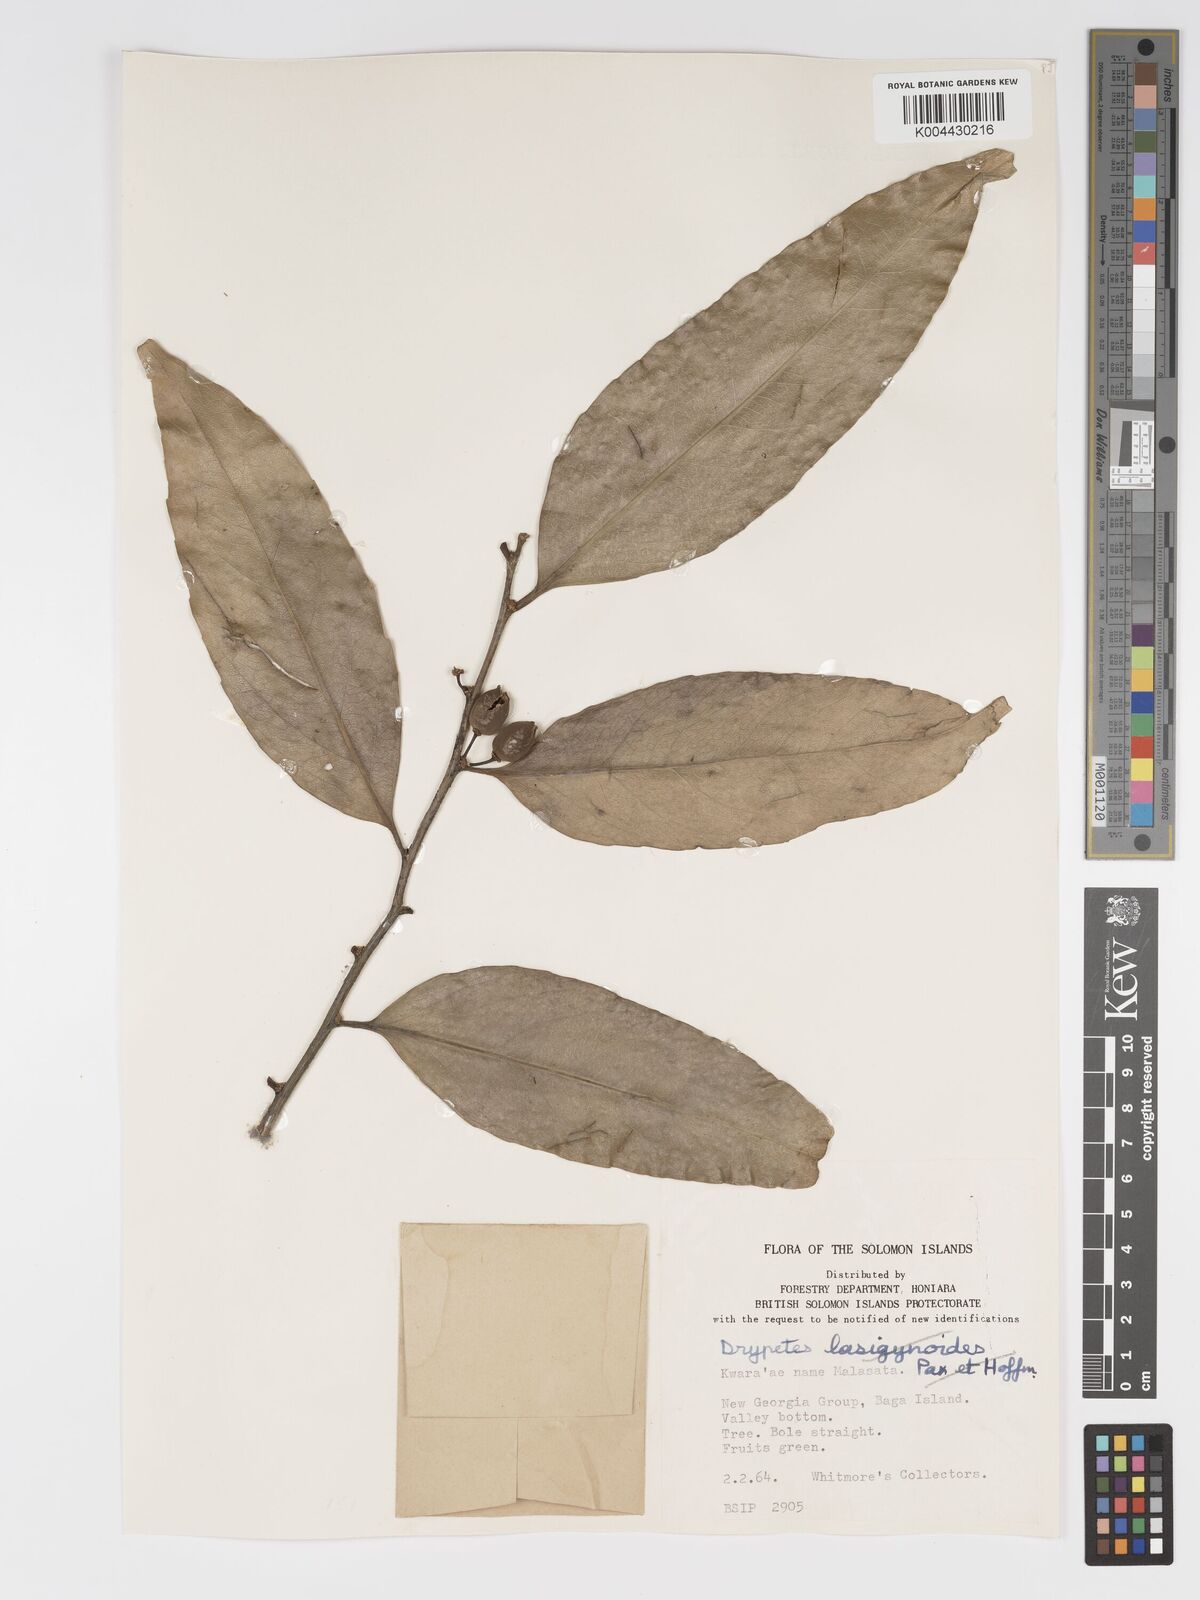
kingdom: Plantae
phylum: Tracheophyta
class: Magnoliopsida
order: Malpighiales
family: Putranjivaceae
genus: Drypetes
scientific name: Drypetes littoralis
